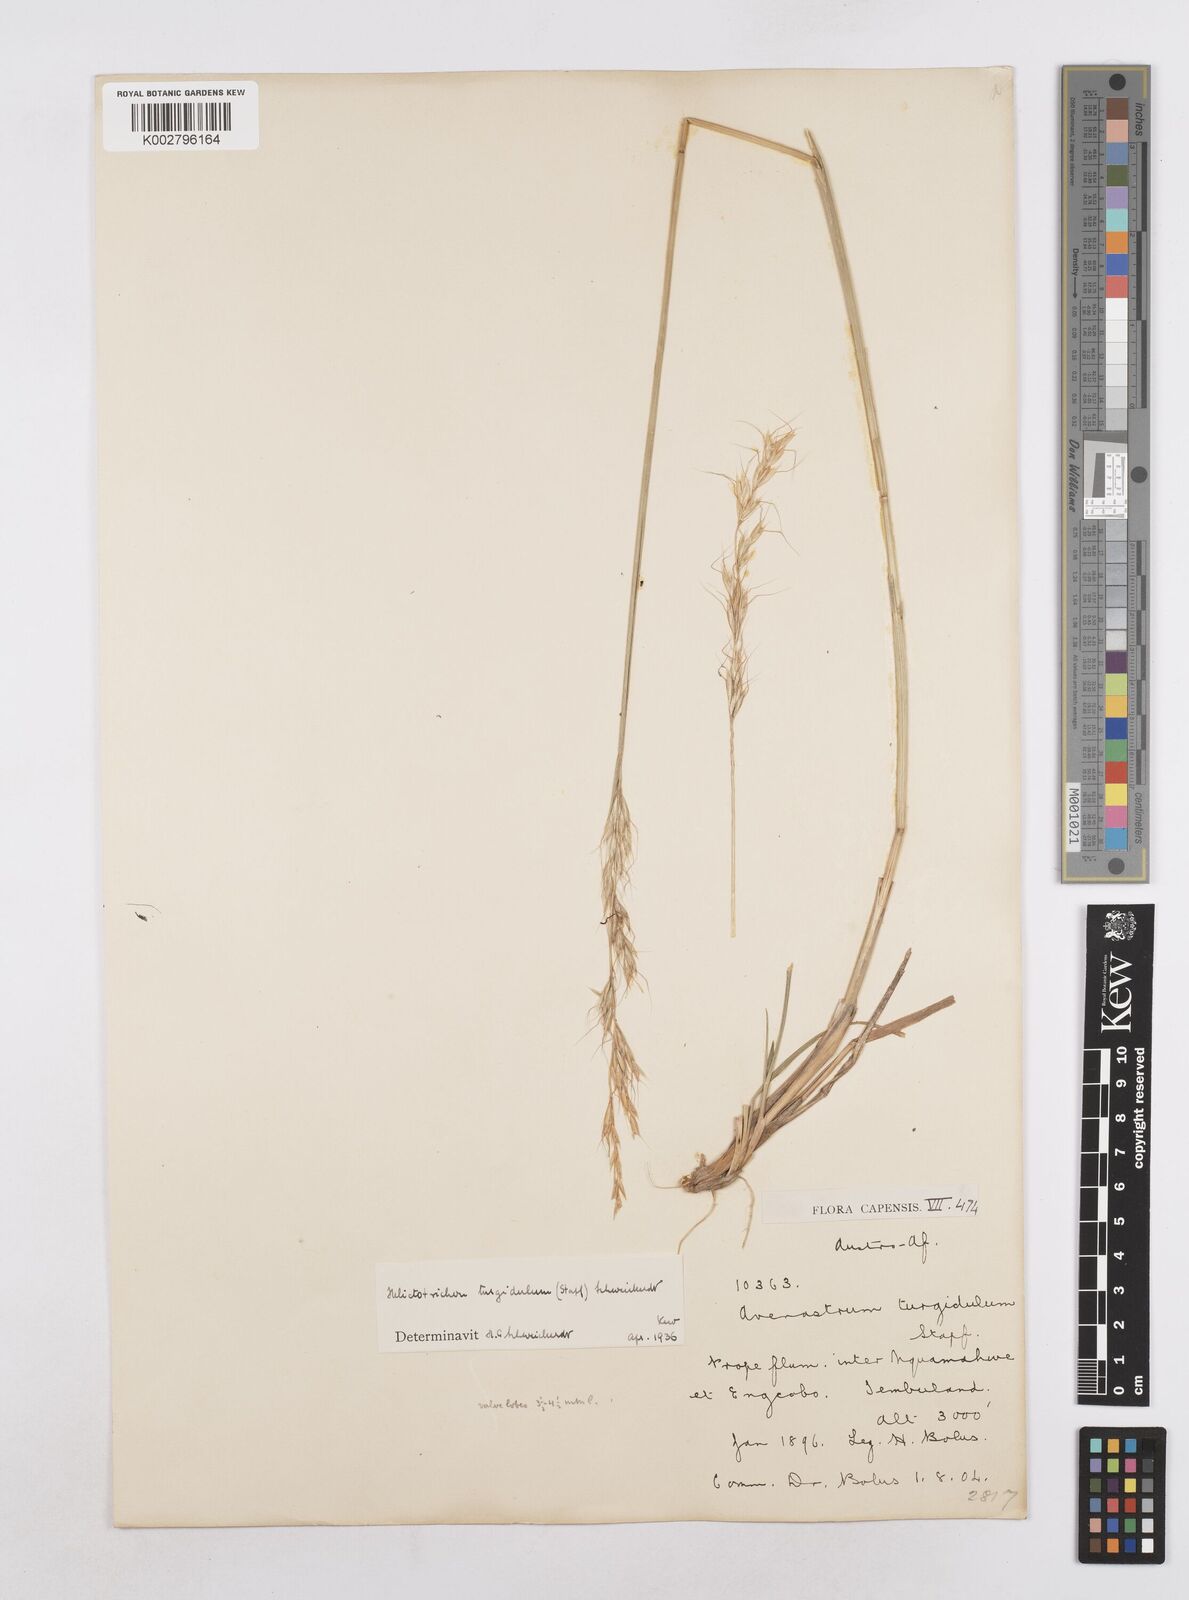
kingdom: Plantae
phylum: Tracheophyta
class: Liliopsida
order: Poales
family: Poaceae
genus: Trisetopsis
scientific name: Trisetopsis imberbis
